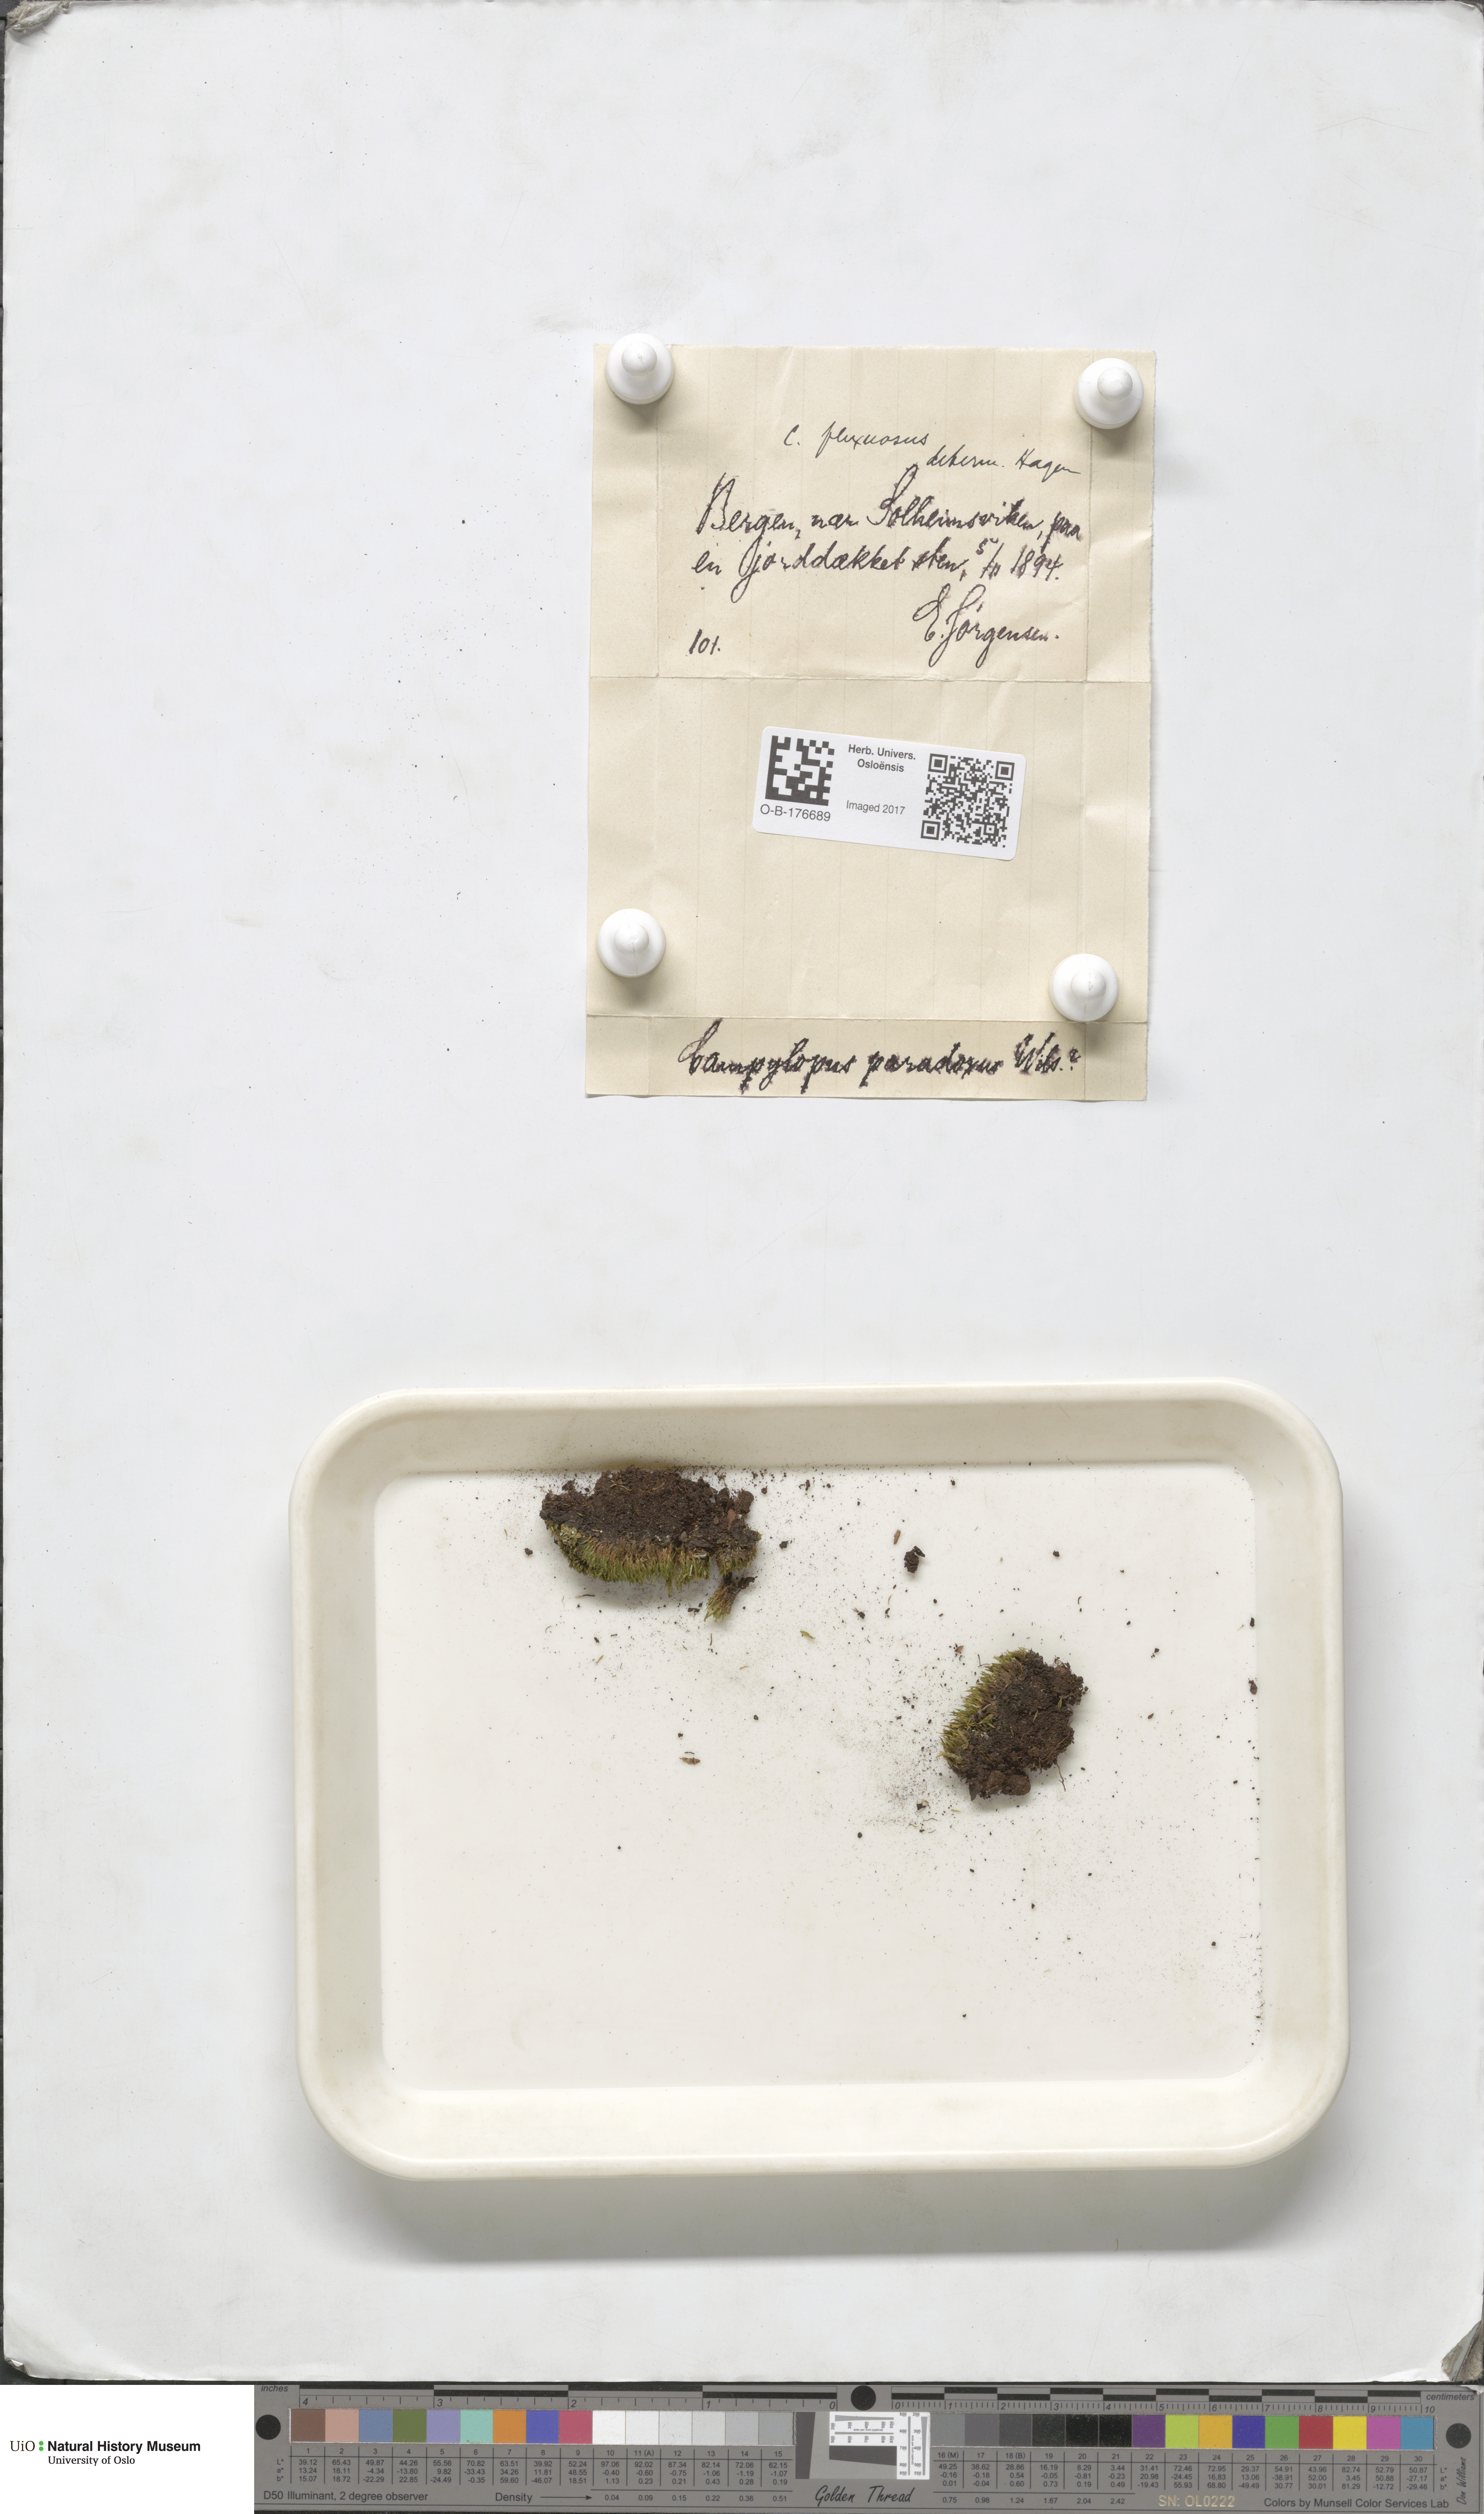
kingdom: Plantae
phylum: Bryophyta
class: Bryopsida
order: Dicranales
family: Leucobryaceae
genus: Campylopus
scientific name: Campylopus flexuosus
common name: Rusty swan-neck moss
